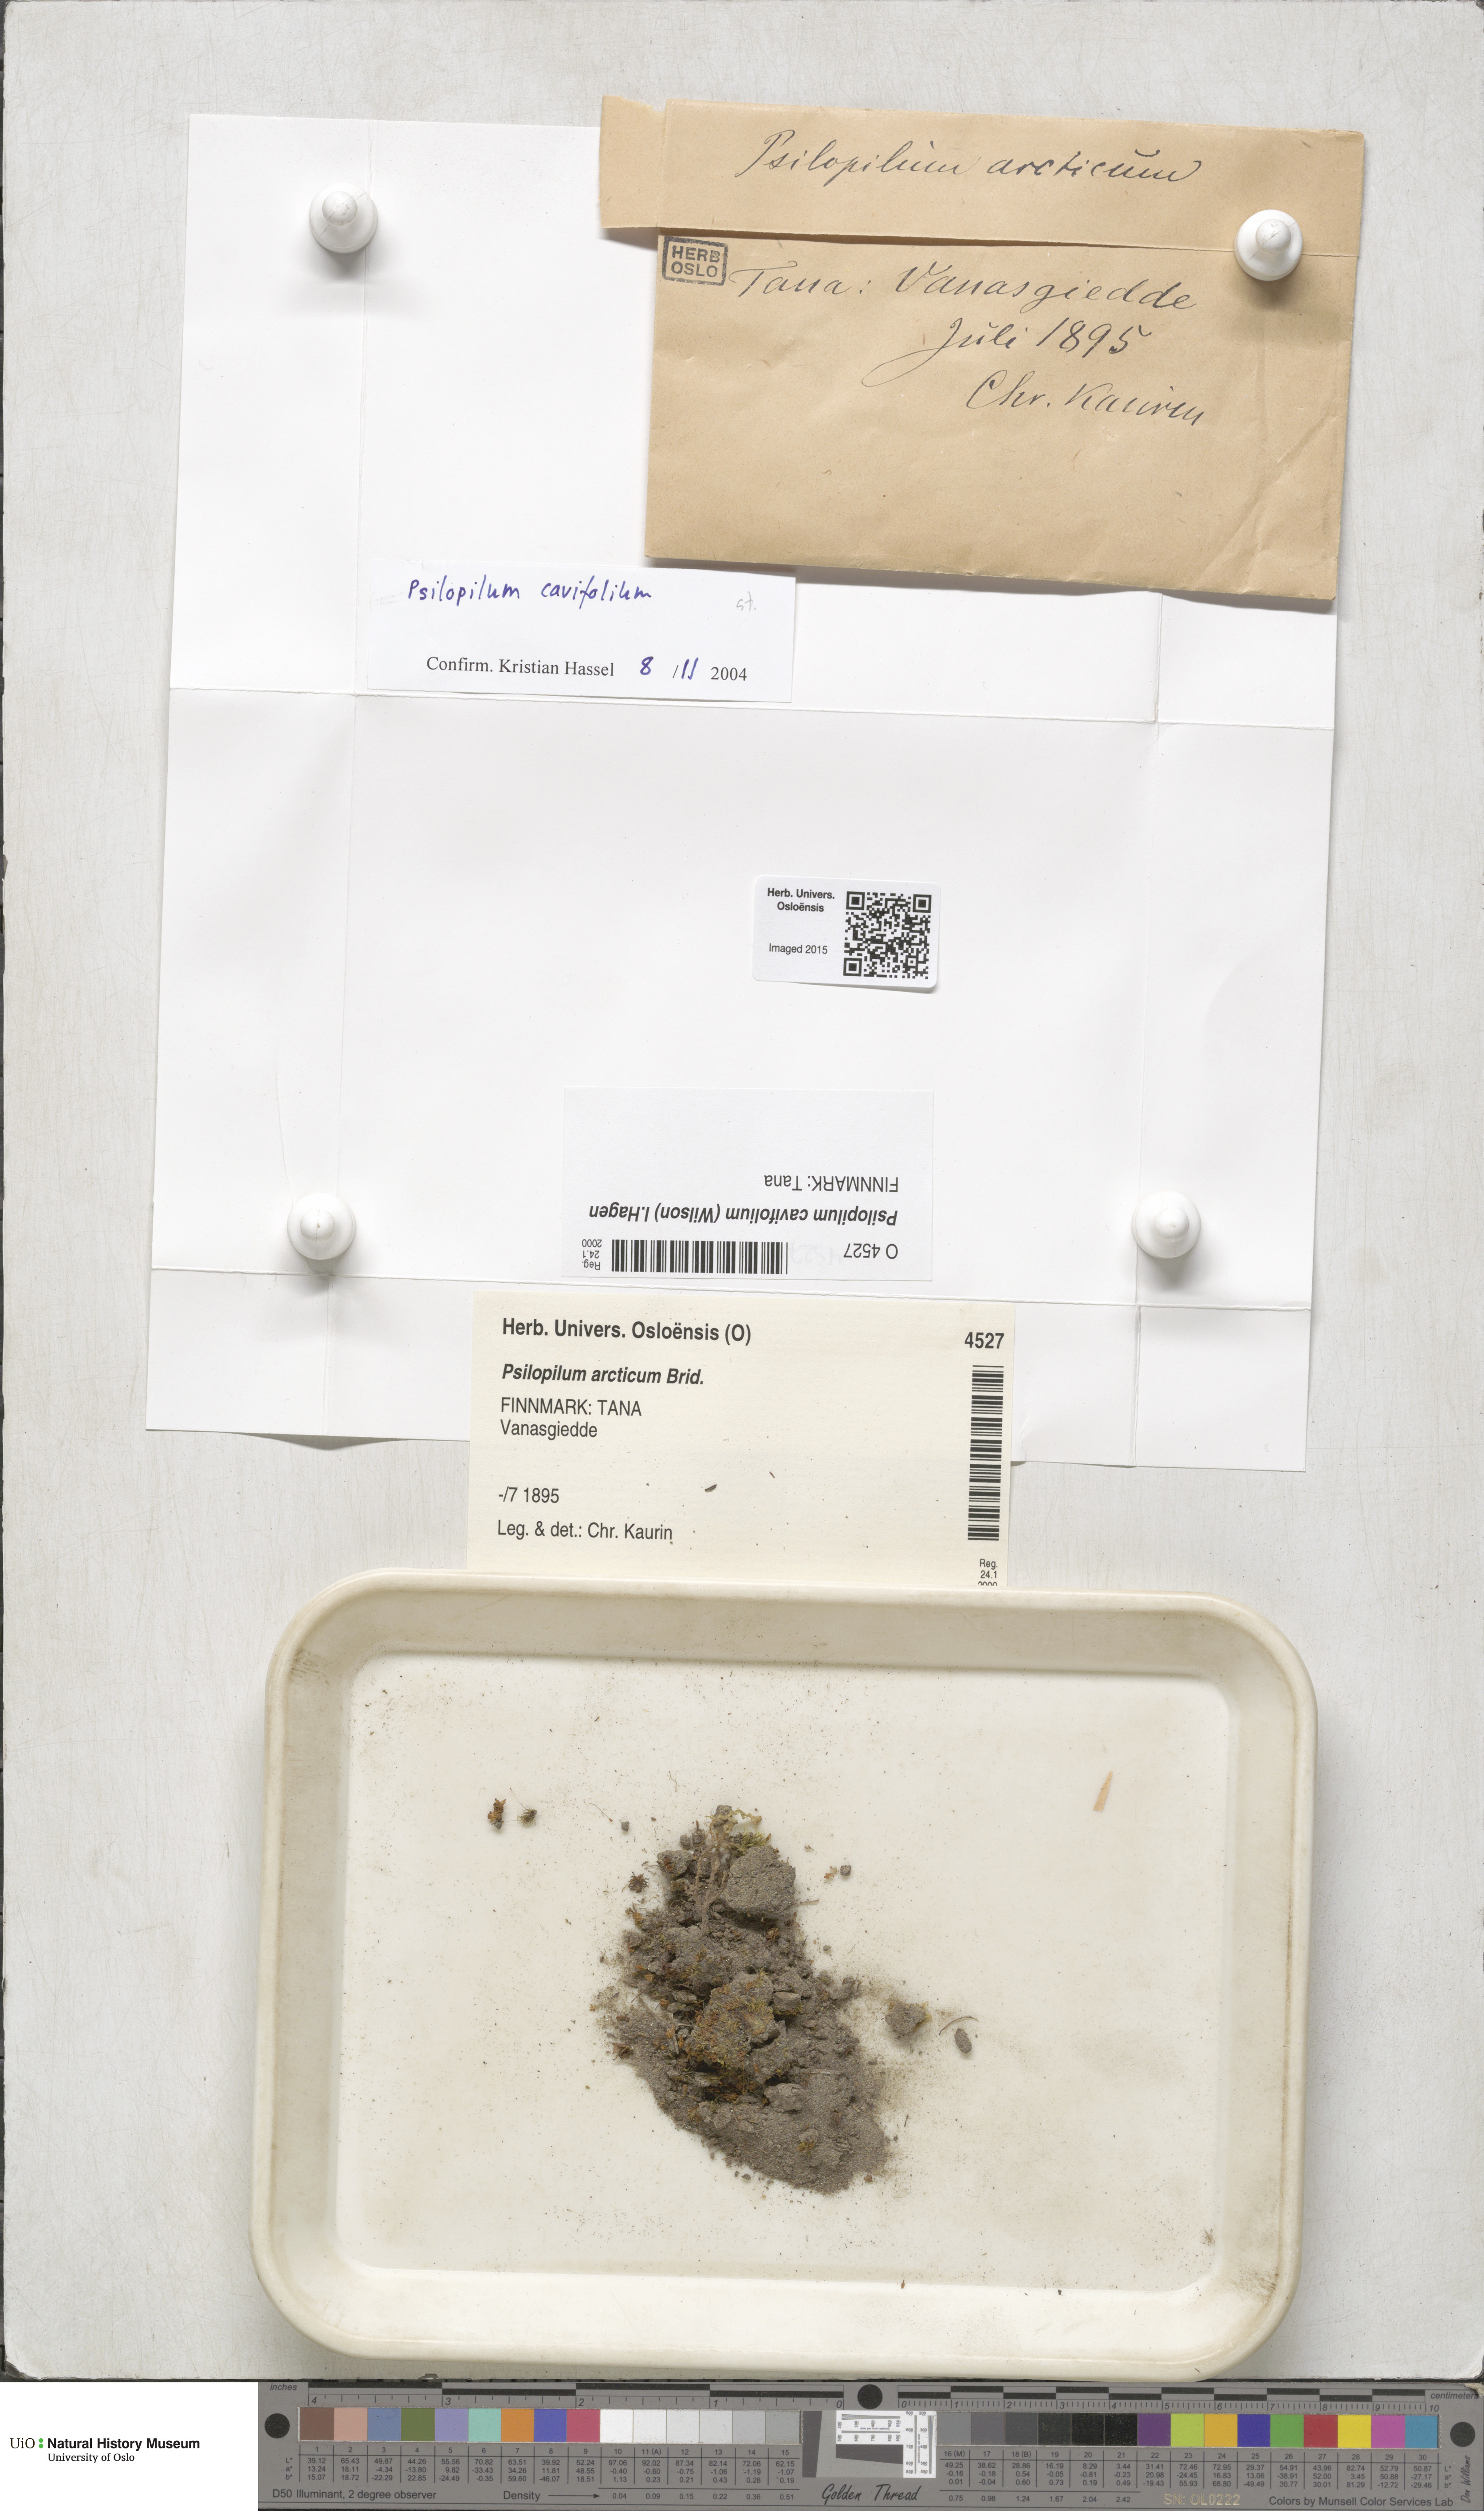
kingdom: Plantae
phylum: Bryophyta
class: Polytrichopsida
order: Polytrichales
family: Polytrichaceae
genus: Psilopilum
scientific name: Psilopilum cavifolium
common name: Little wolverine moss
